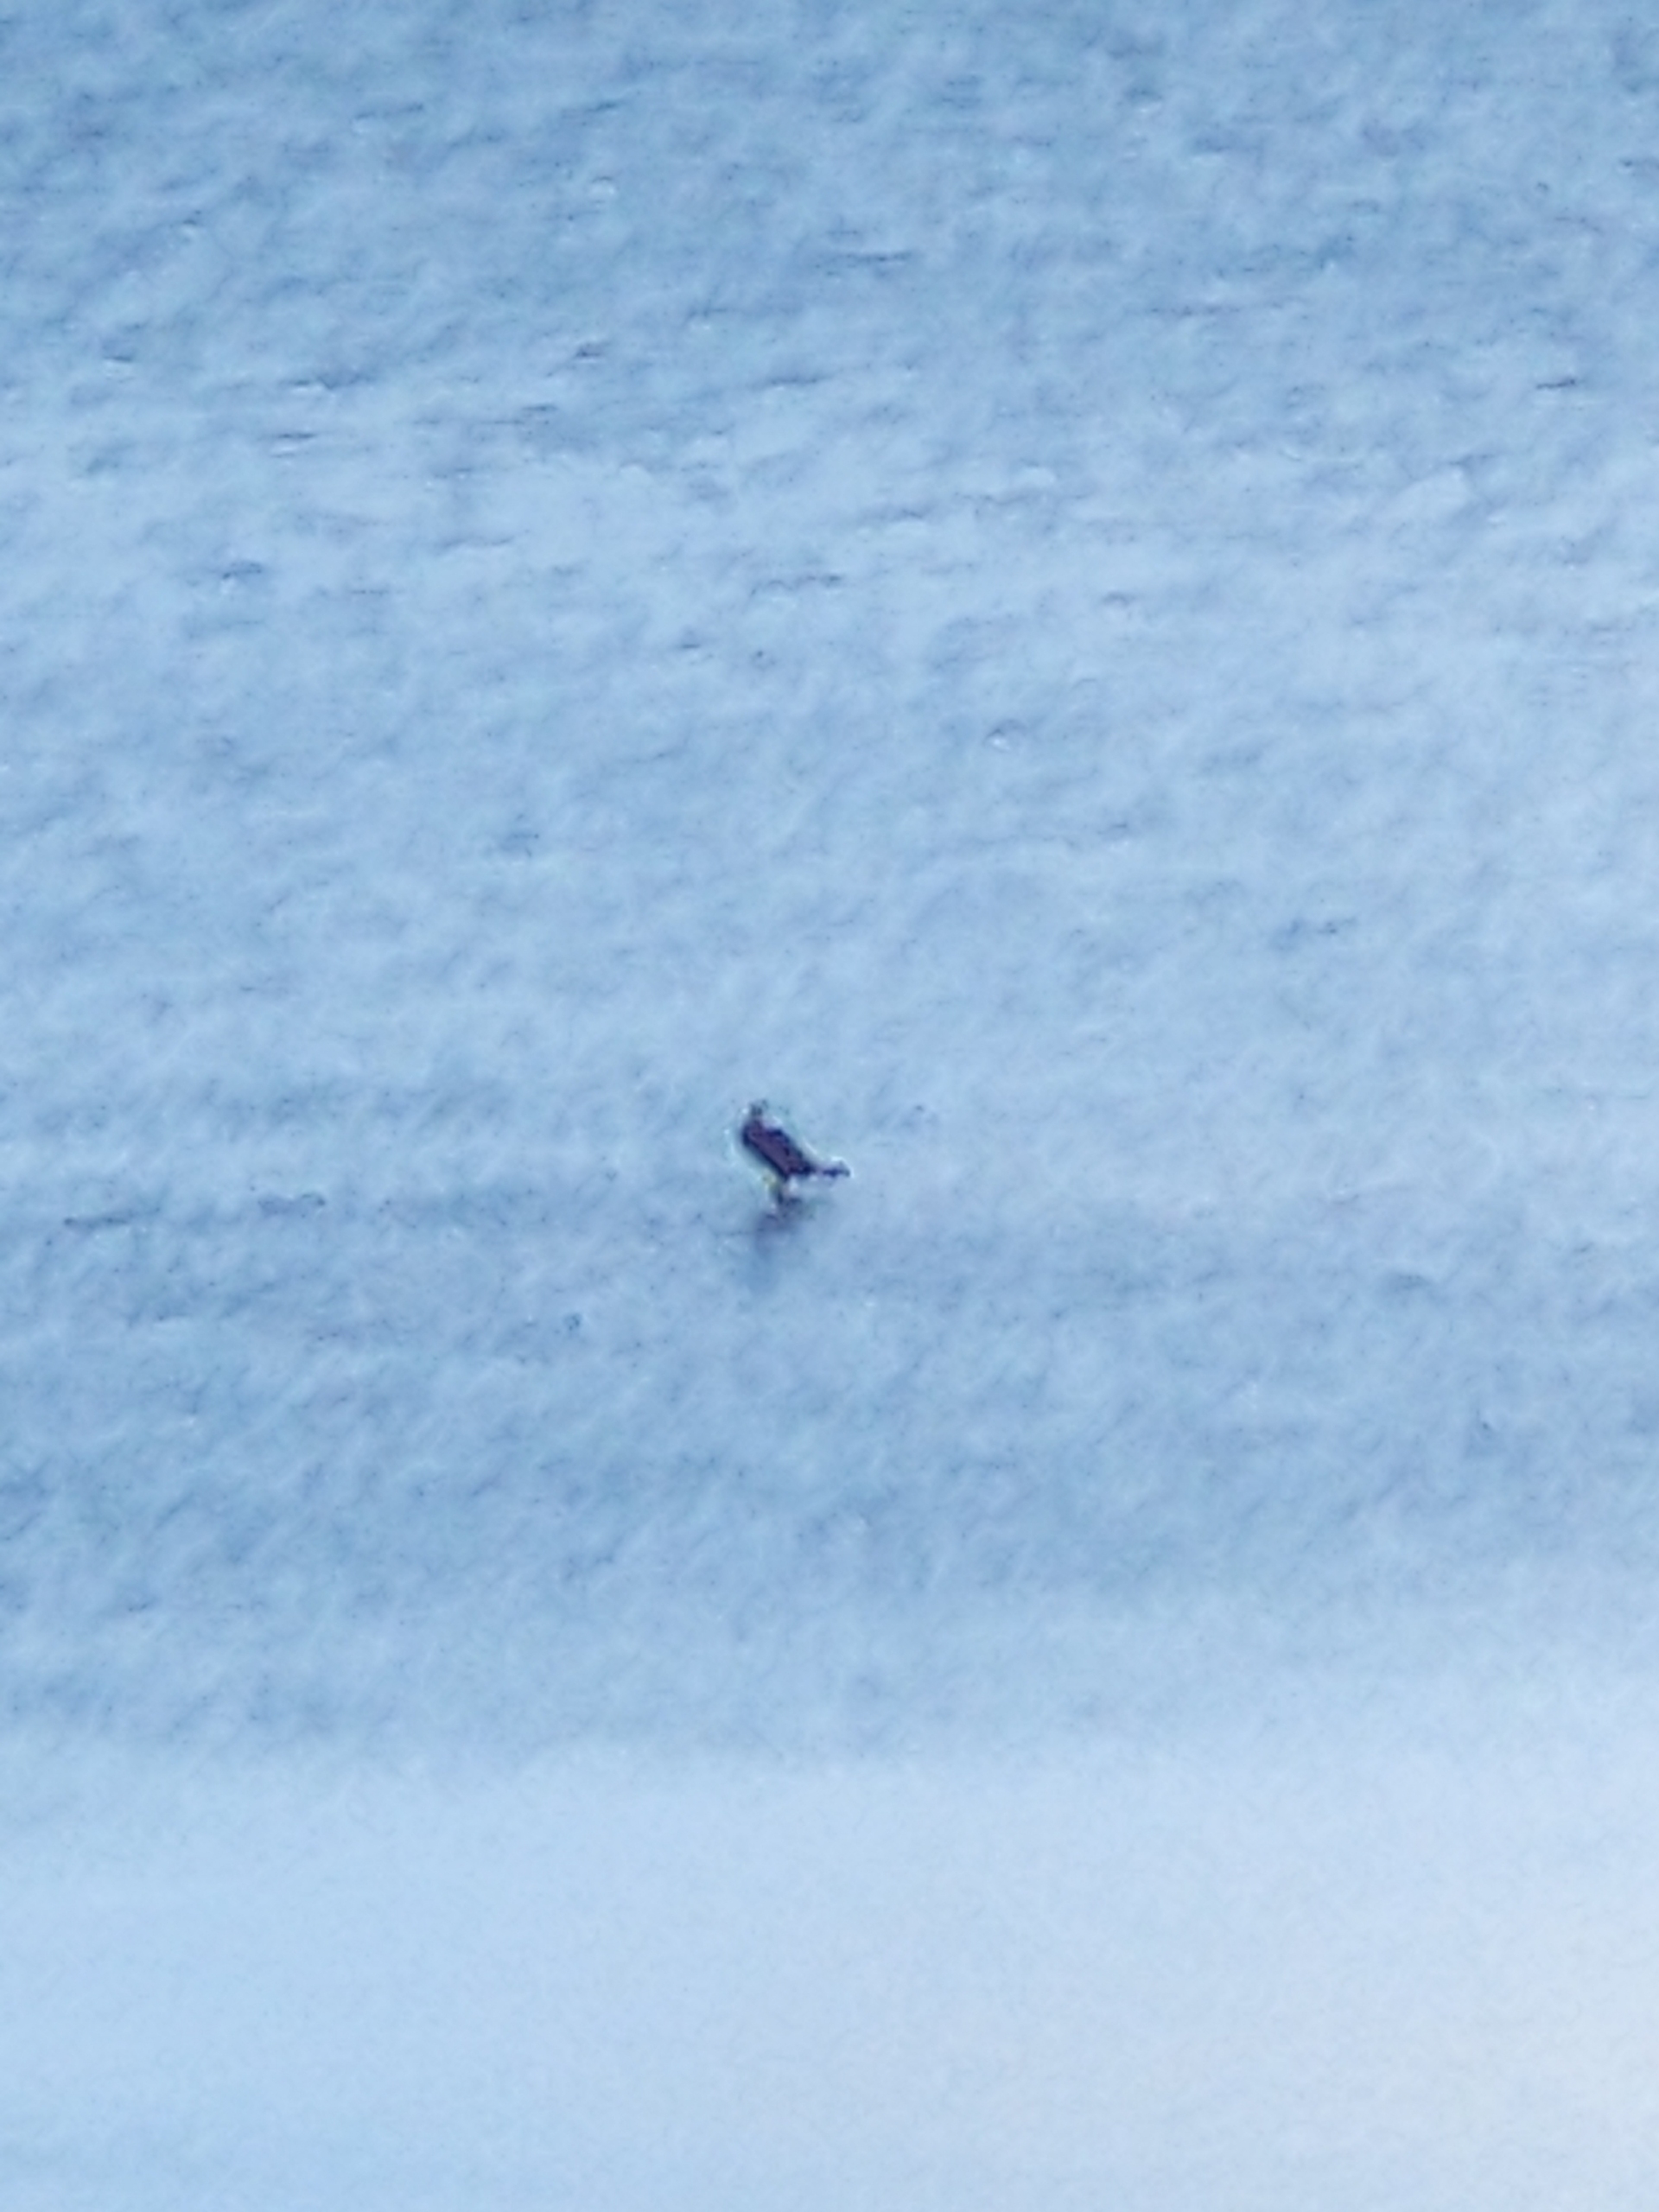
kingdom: Animalia
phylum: Chordata
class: Aves
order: Suliformes
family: Phalacrocoracidae
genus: Phalacrocorax
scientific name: Phalacrocorax carbo
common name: Skarv
